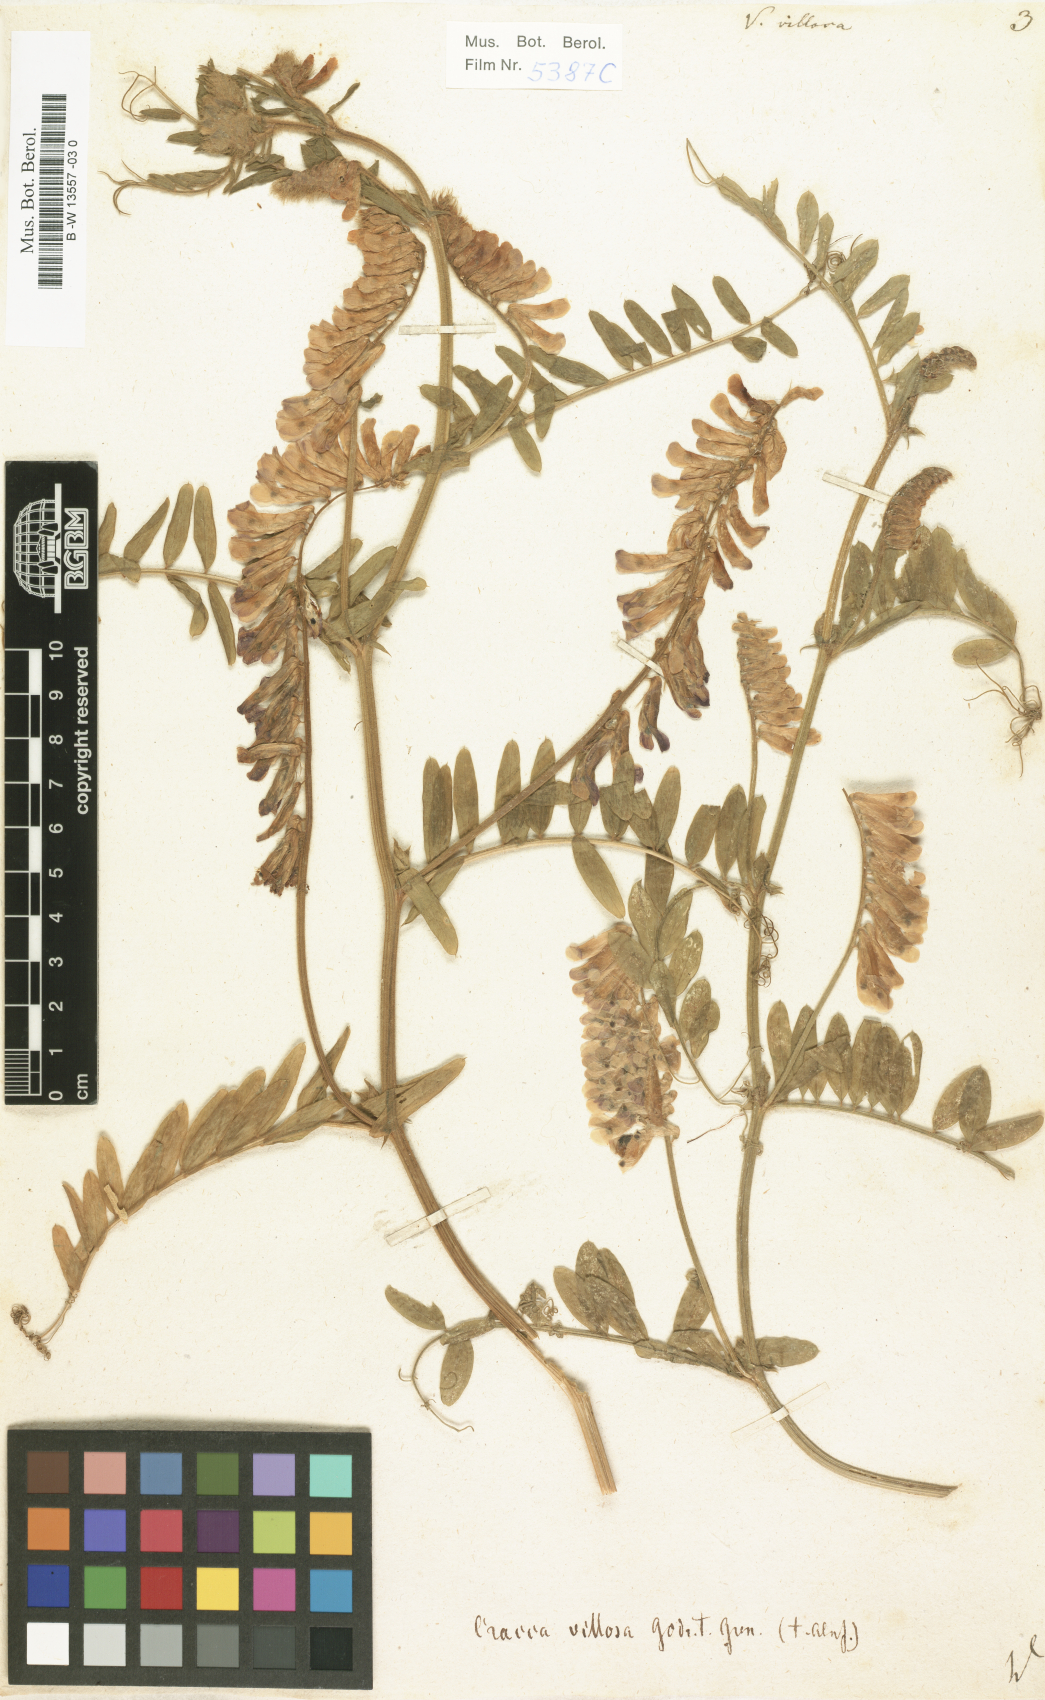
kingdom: Plantae
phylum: Tracheophyta
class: Magnoliopsida
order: Fabales
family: Fabaceae
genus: Vicia
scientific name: Vicia villosa
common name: Fodder vetch
